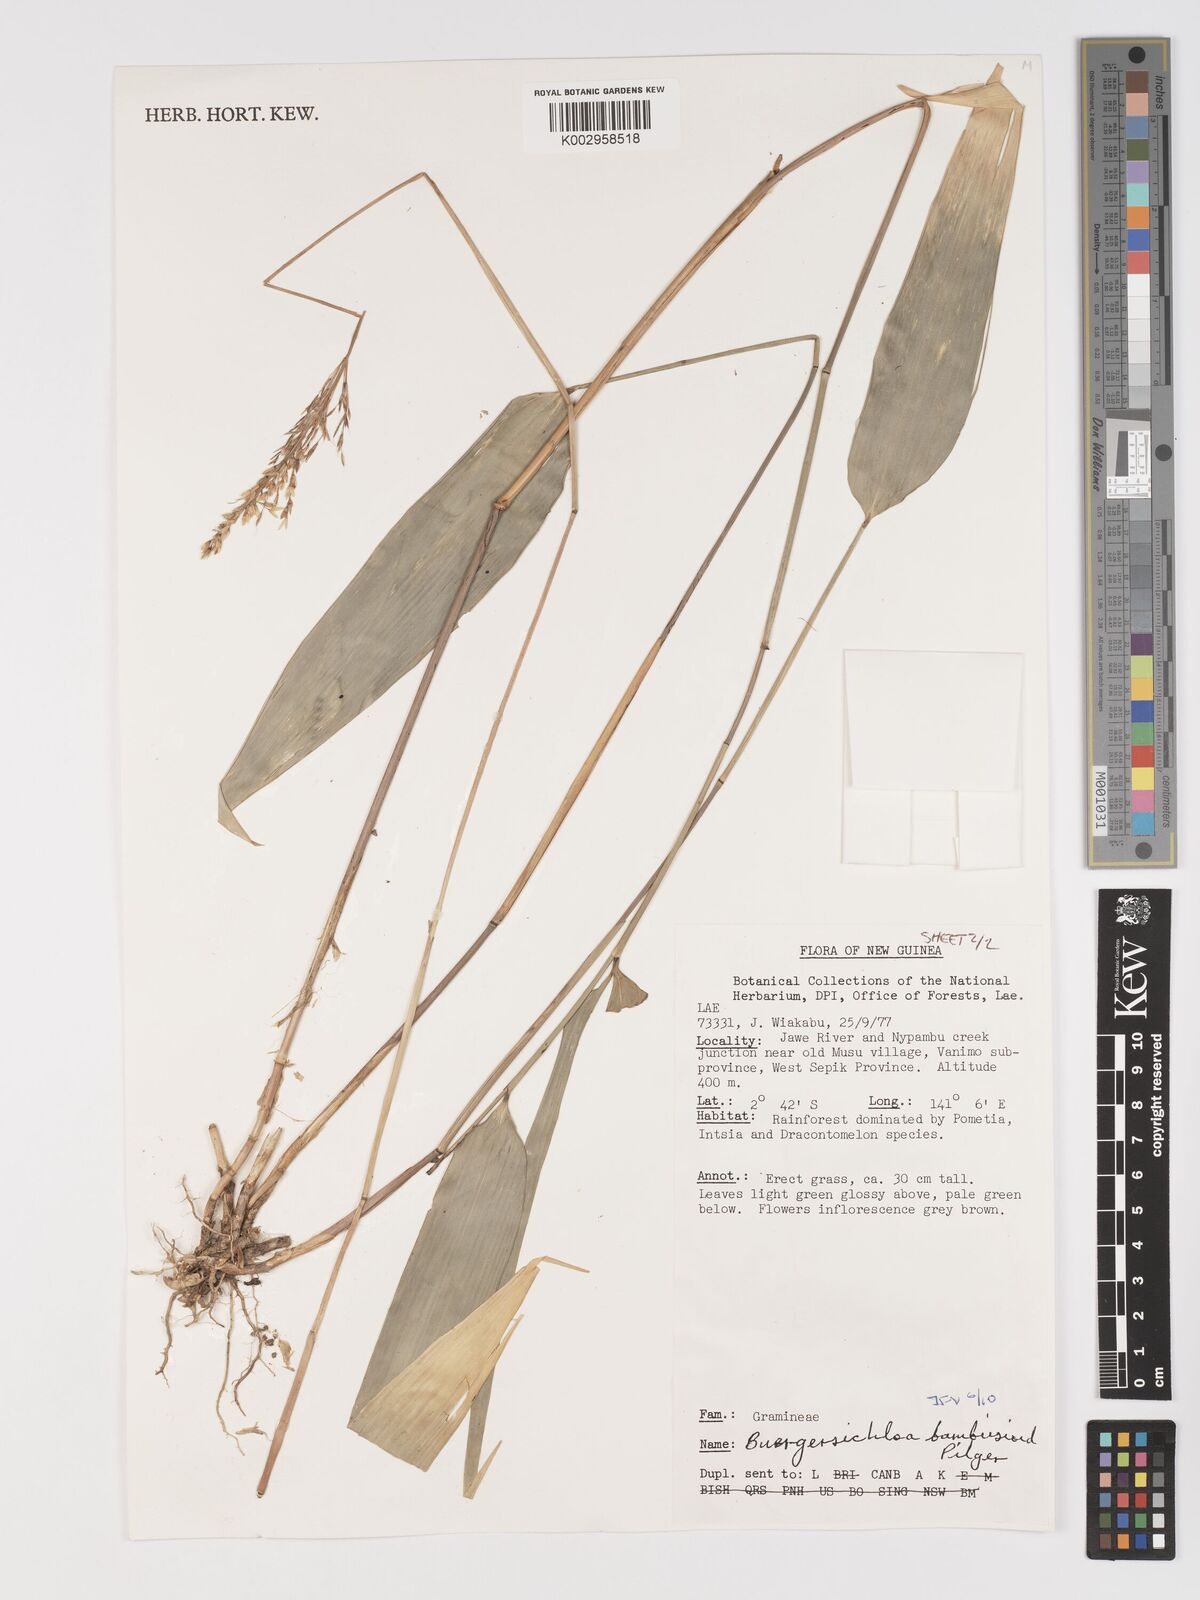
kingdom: Plantae
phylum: Tracheophyta
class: Liliopsida
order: Poales
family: Poaceae
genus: Buergersiochloa
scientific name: Buergersiochloa bambusoides
